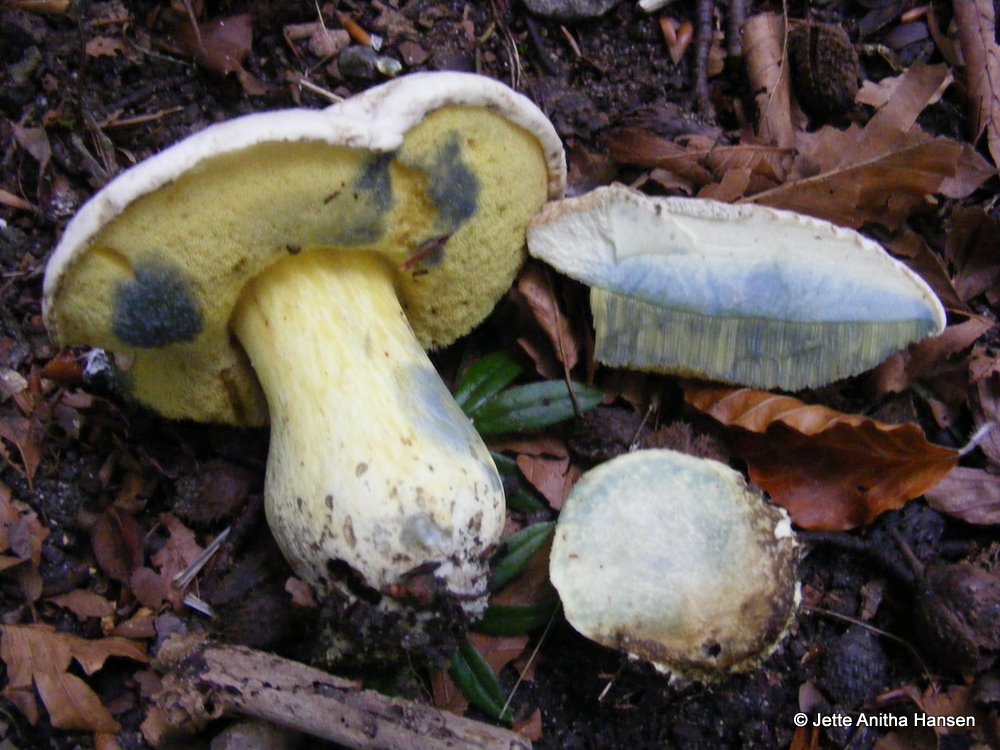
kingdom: Fungi
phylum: Basidiomycota
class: Agaricomycetes
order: Boletales
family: Boletaceae
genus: Caloboletus
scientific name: Caloboletus radicans
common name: rod-rørhat
